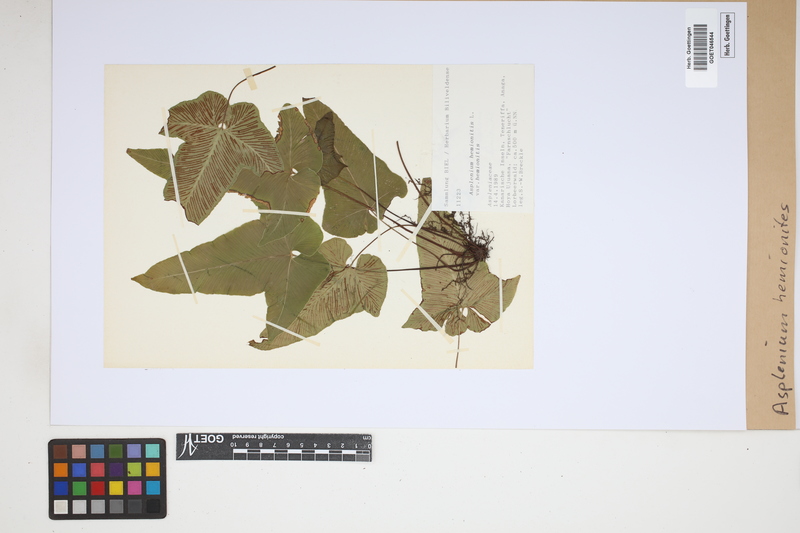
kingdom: Plantae
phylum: Tracheophyta
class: Polypodiopsida
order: Polypodiales
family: Aspleniaceae
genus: Asplenium
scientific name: Asplenium hemionitis
